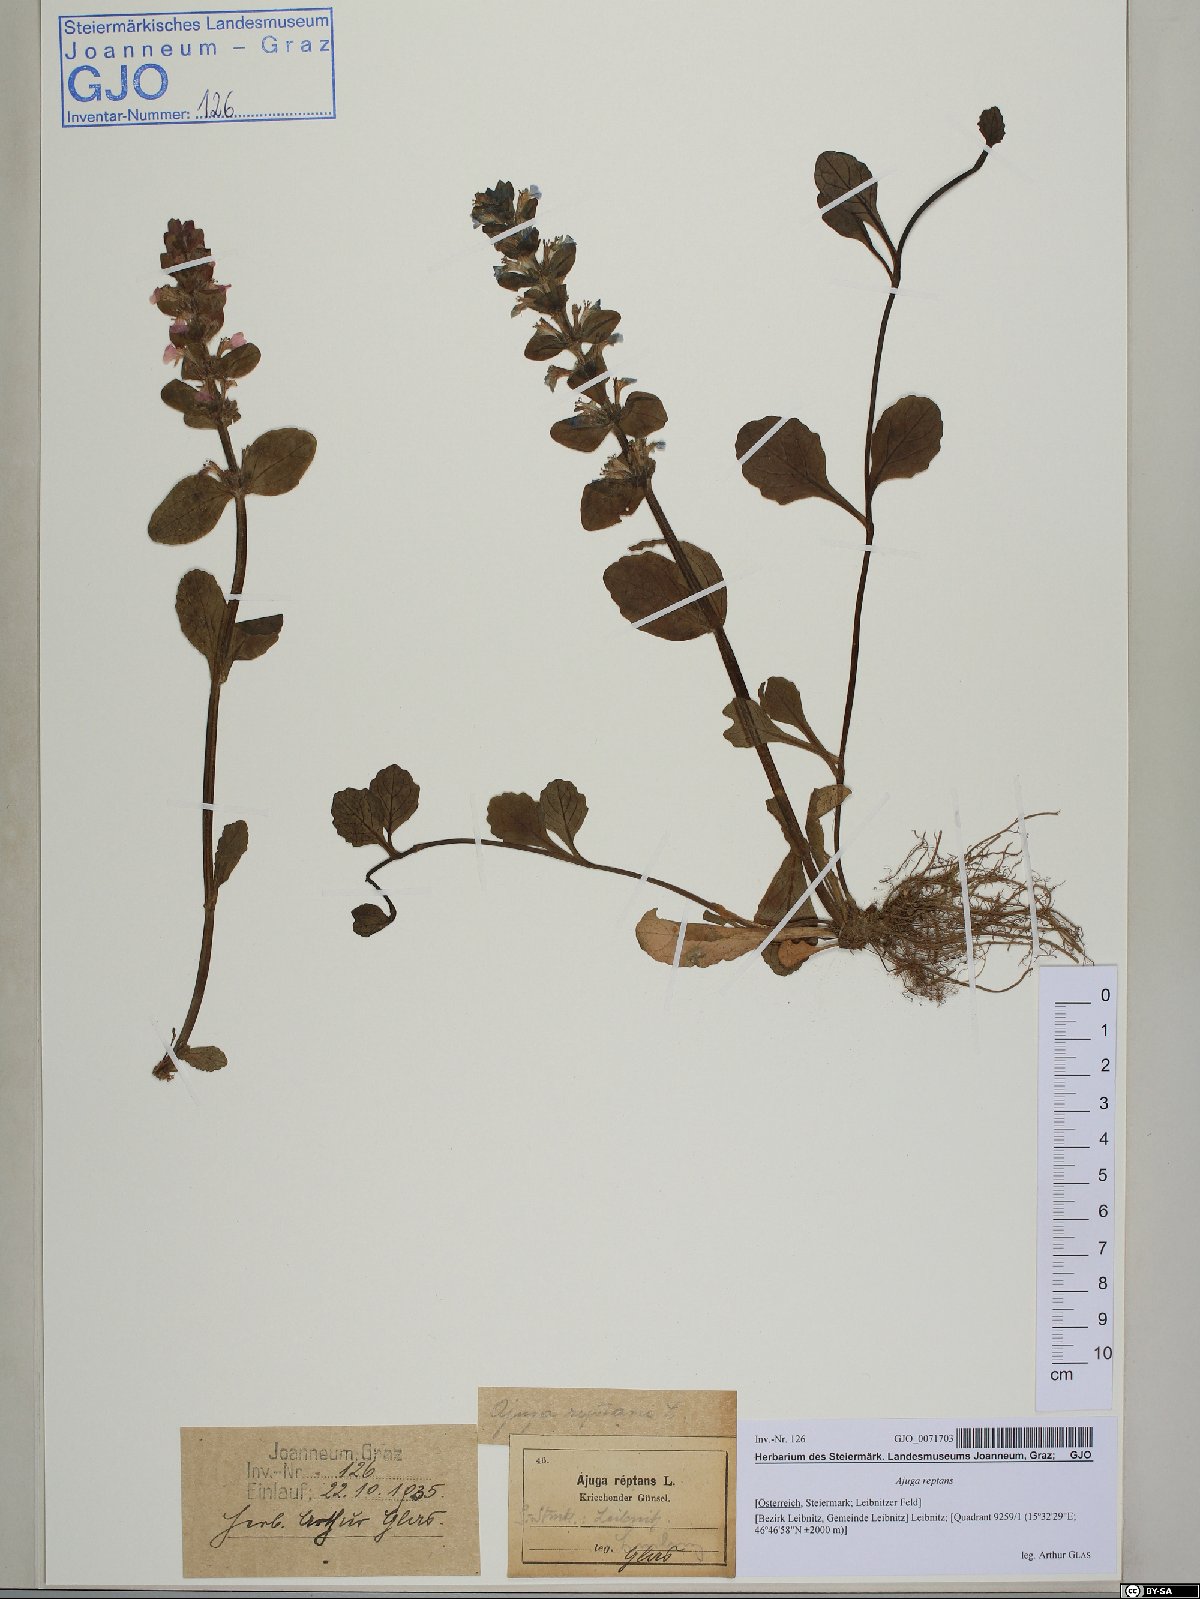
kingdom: Plantae
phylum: Tracheophyta
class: Magnoliopsida
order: Lamiales
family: Lamiaceae
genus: Ajuga
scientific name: Ajuga reptans
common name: Bugle
